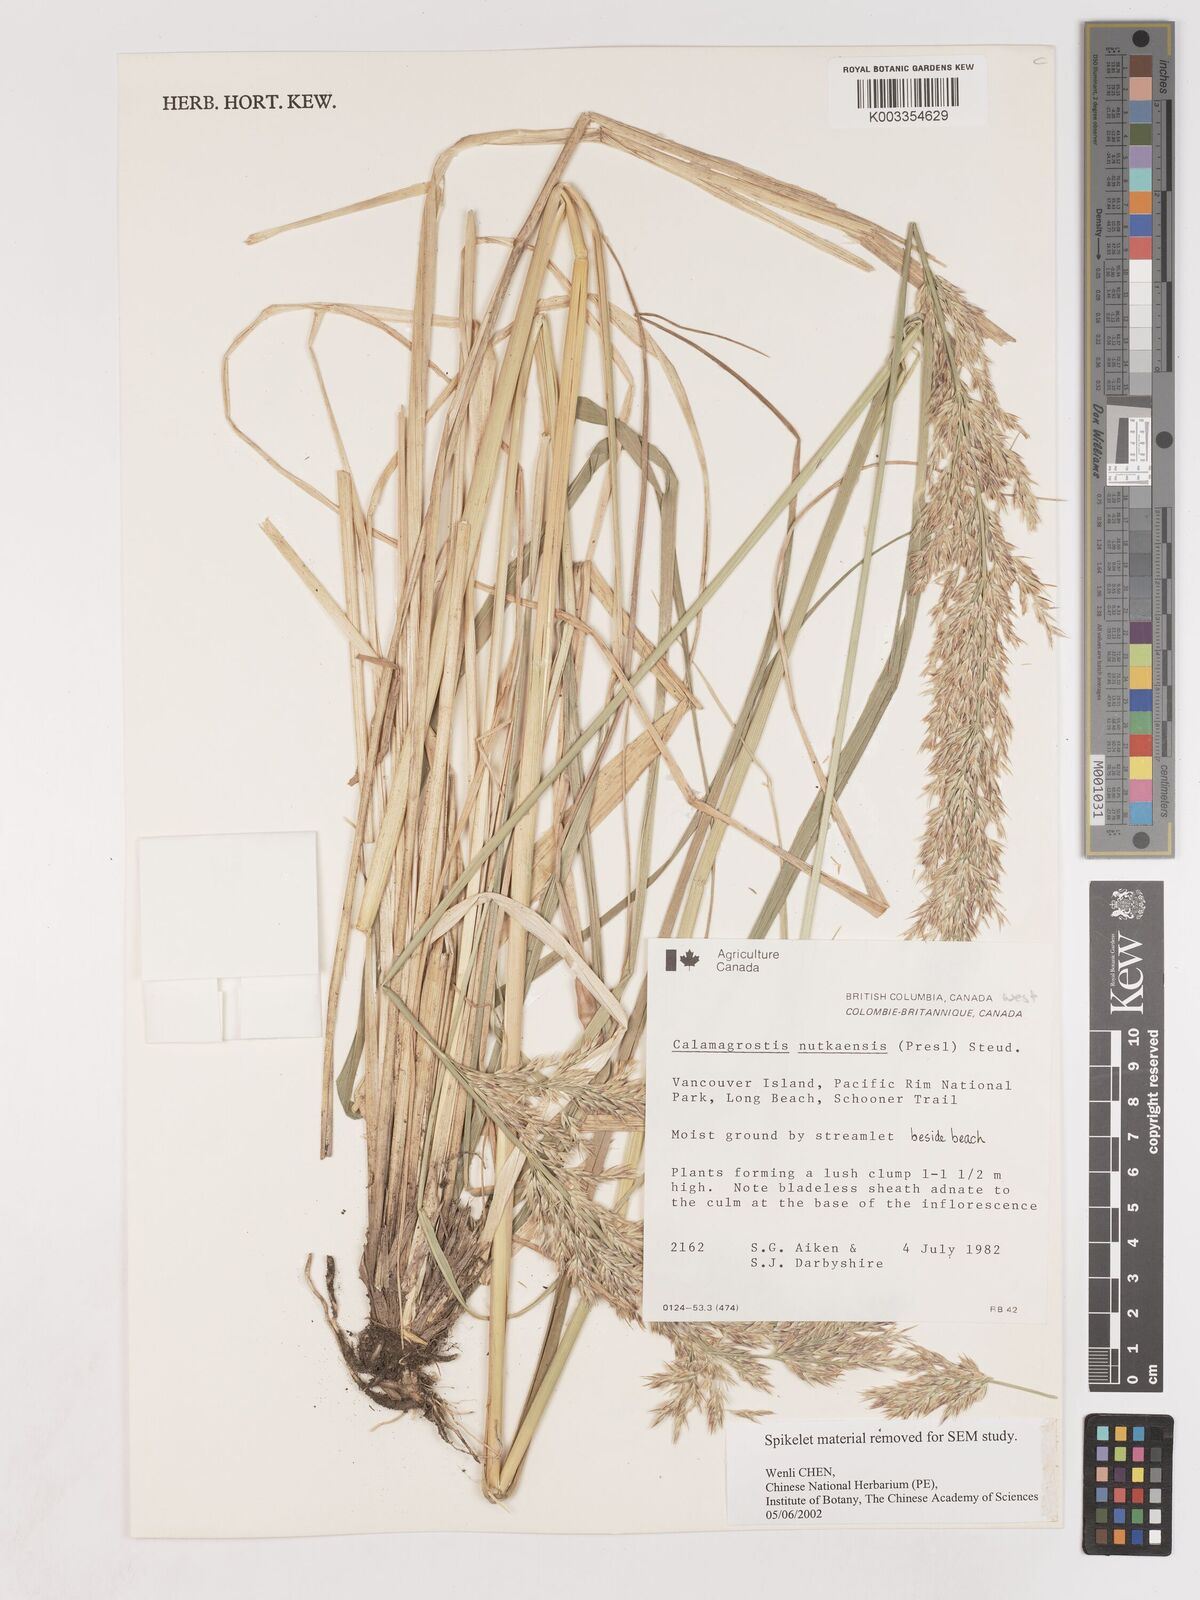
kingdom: Plantae
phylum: Tracheophyta
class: Liliopsida
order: Poales
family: Poaceae
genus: Calamagrostis
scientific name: Calamagrostis nutkaensis
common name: Pacific reed grass
